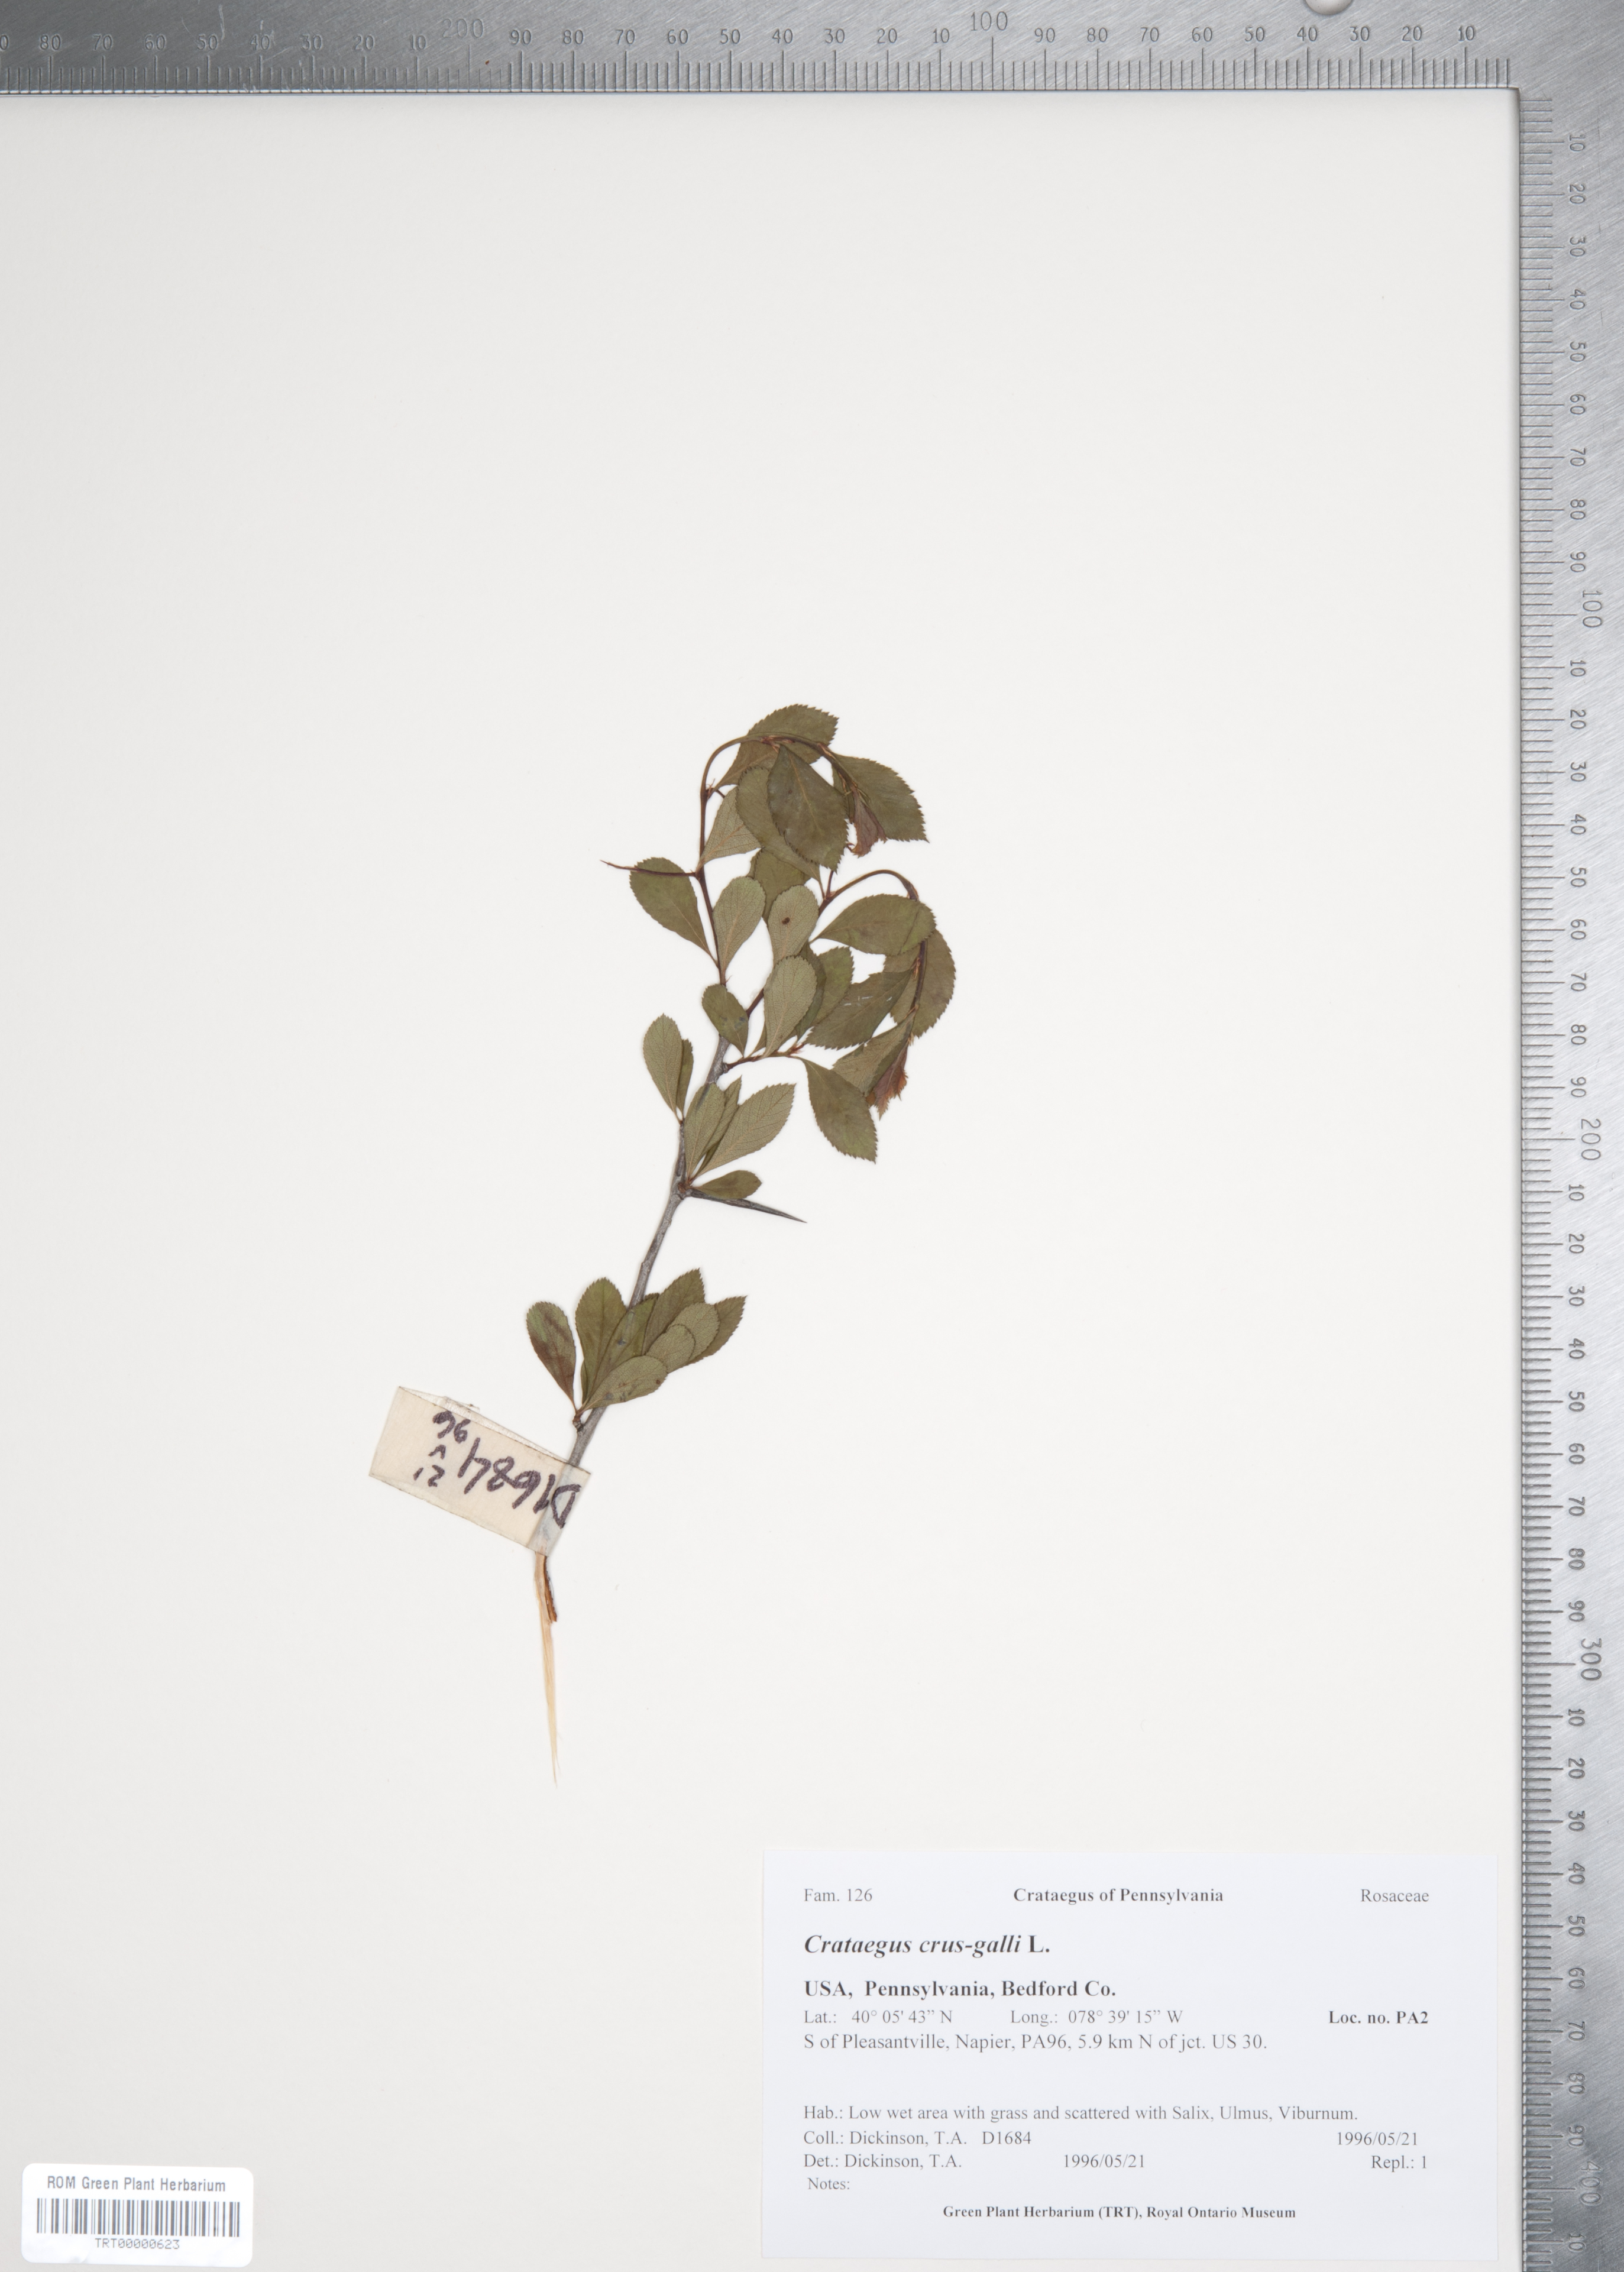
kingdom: Plantae
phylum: Tracheophyta
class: Magnoliopsida
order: Rosales
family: Rosaceae
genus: Crataegus
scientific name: Crataegus crus-galli
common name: Cockspurthorn
